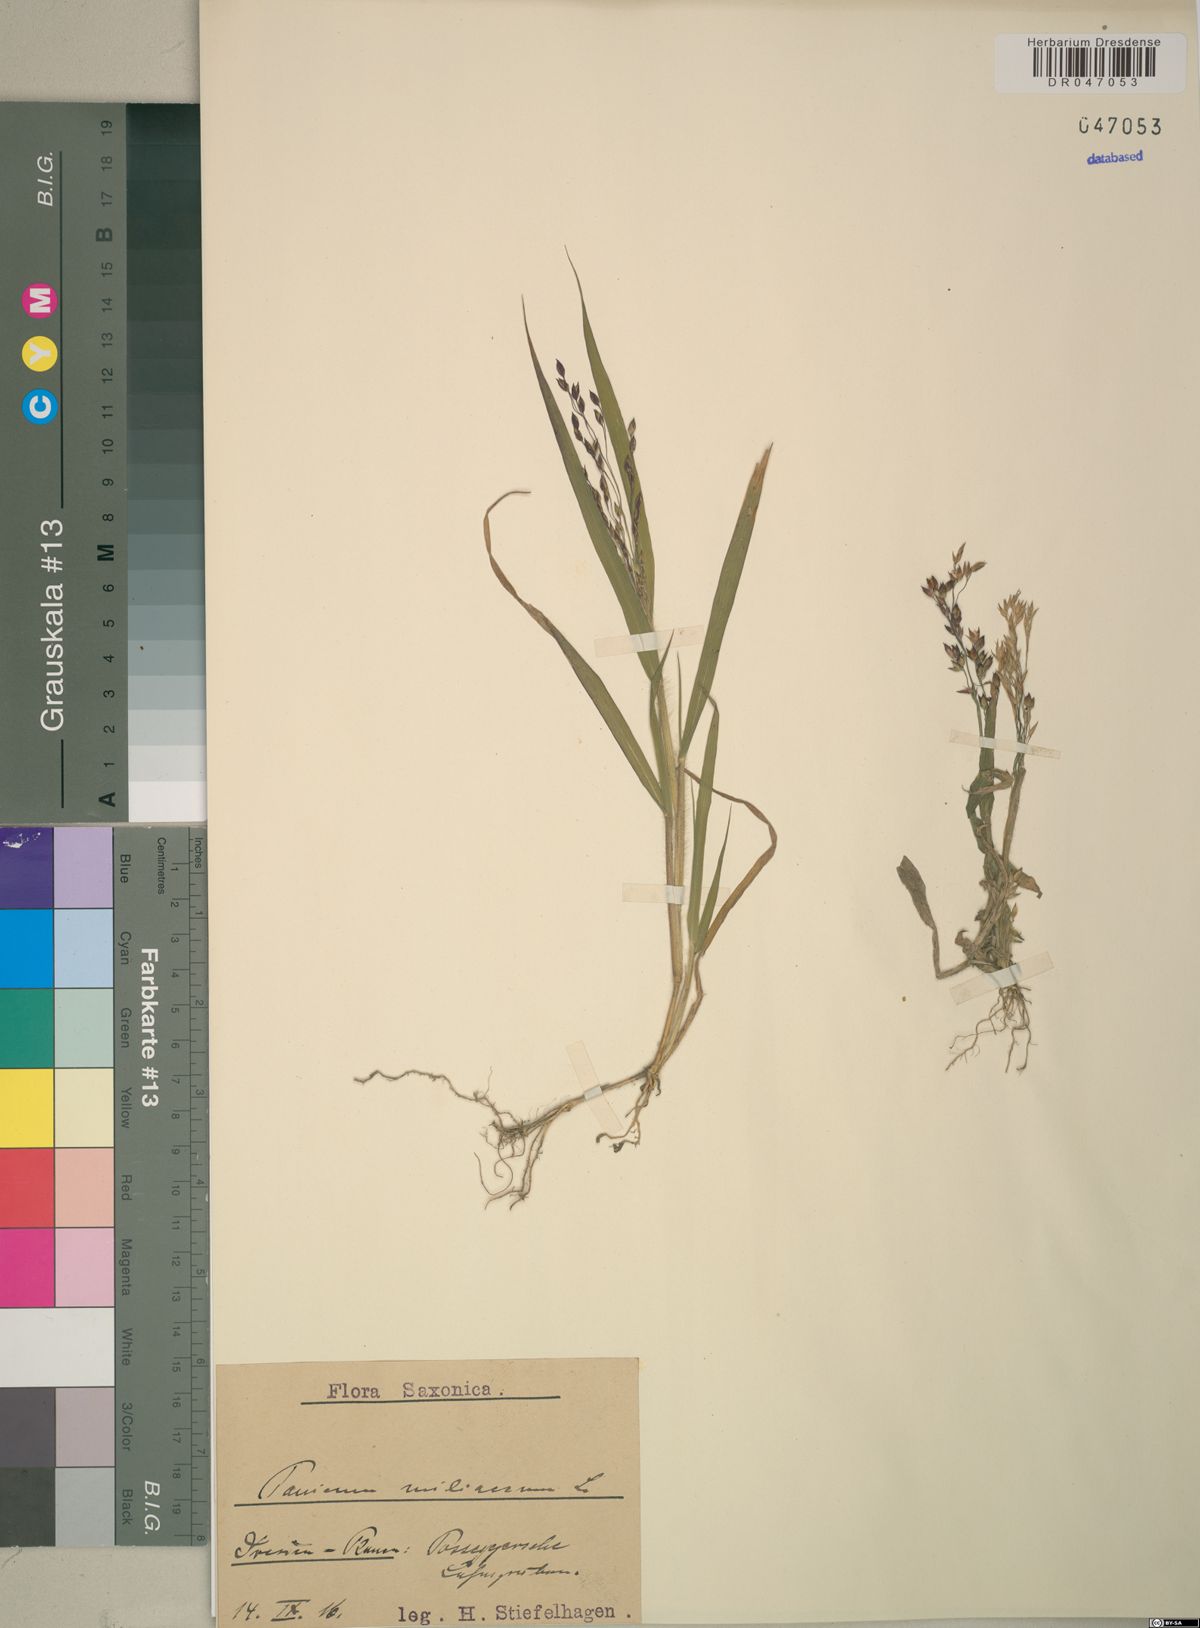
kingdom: Plantae
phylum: Tracheophyta
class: Liliopsida
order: Poales
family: Poaceae
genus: Panicum
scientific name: Panicum miliaceum
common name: Common millet
